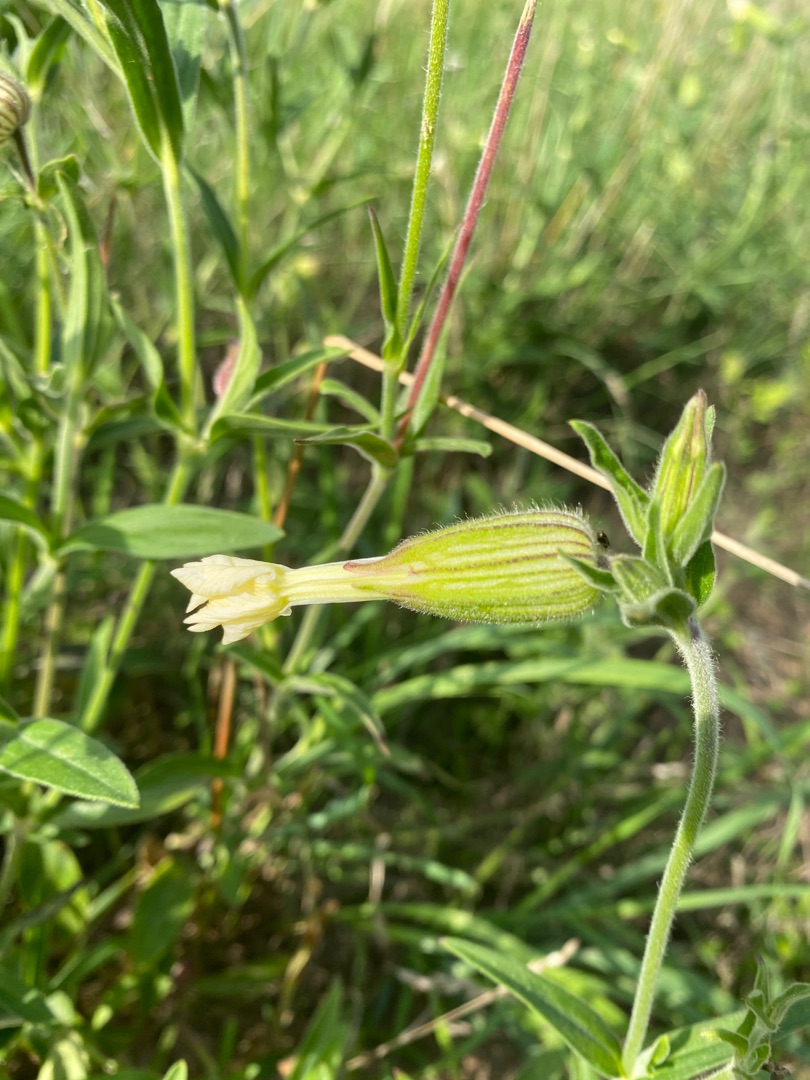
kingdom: Plantae
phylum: Tracheophyta
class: Magnoliopsida
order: Caryophyllales
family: Caryophyllaceae
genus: Silene
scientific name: Silene latifolia
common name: Aftenpragtstjerne
